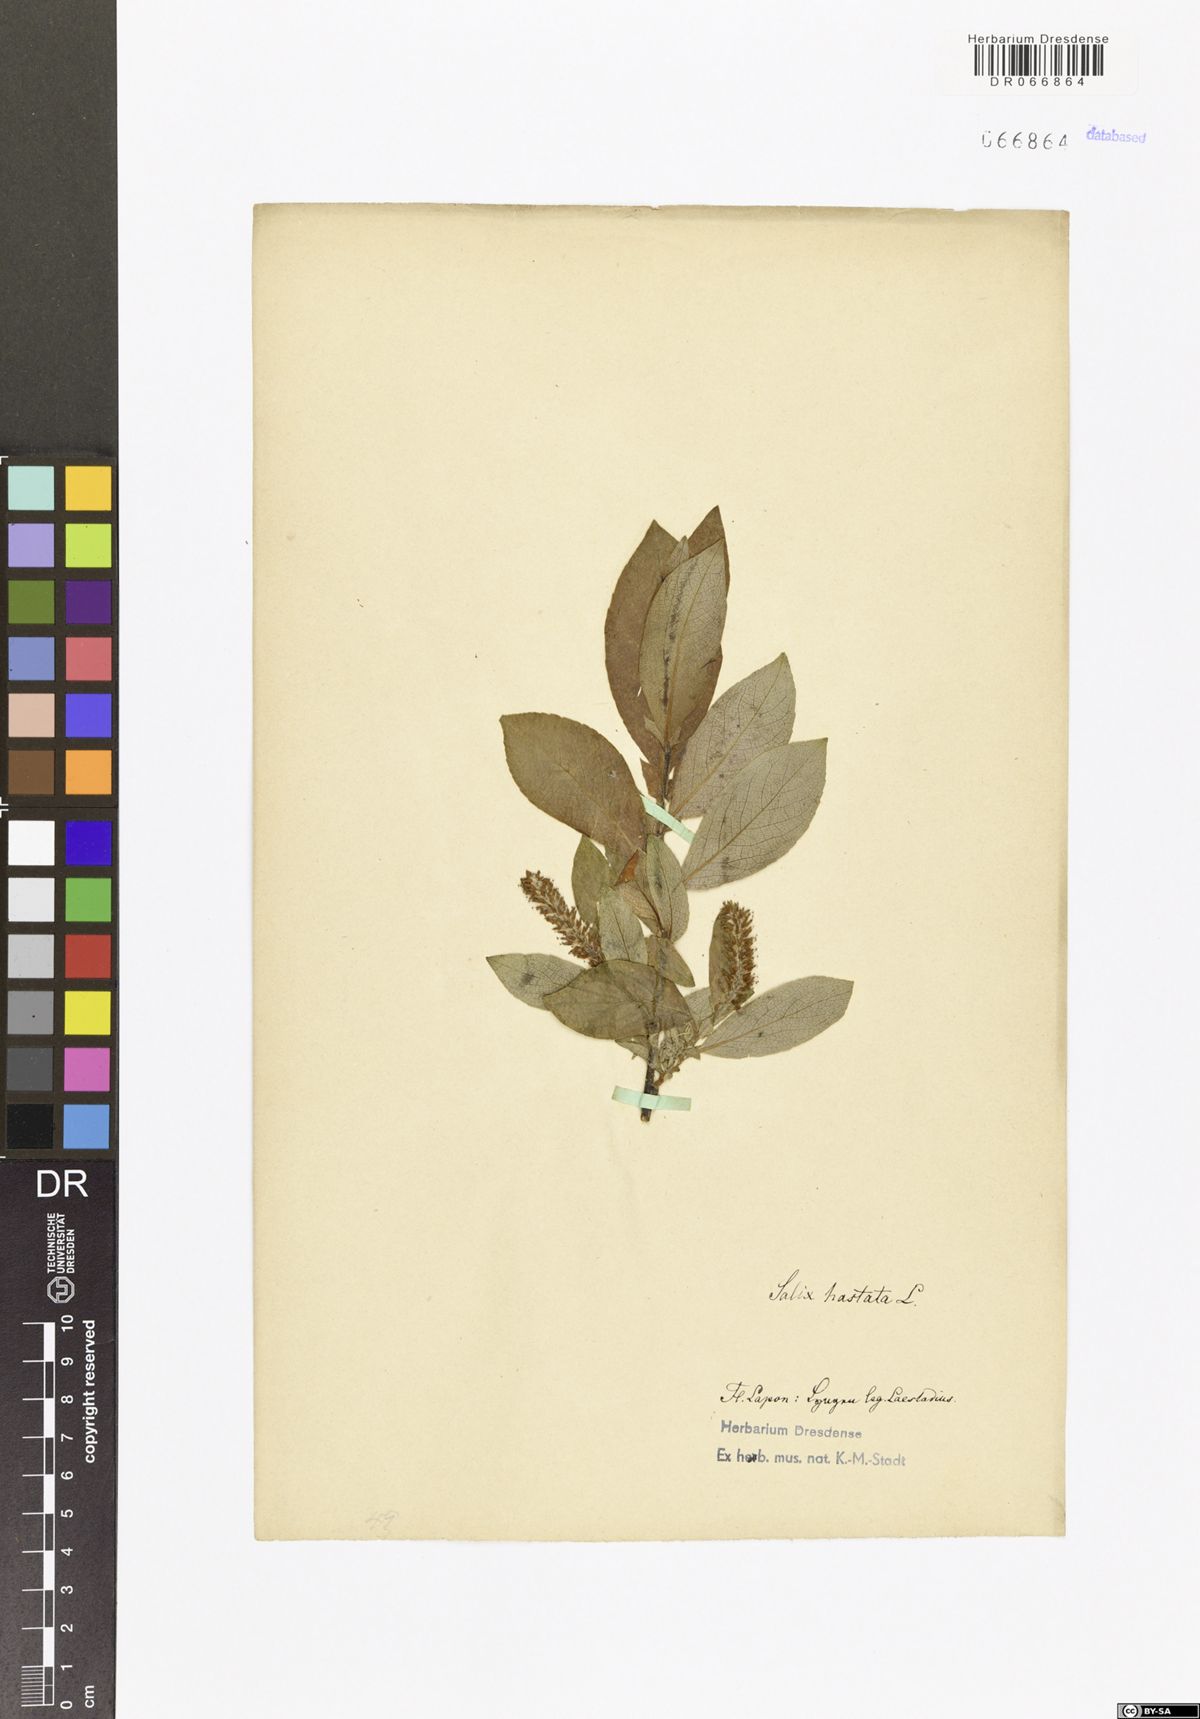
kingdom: Plantae
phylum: Tracheophyta
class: Magnoliopsida
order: Malpighiales
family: Salicaceae
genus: Salix
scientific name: Salix hastata
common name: Halberd willow
